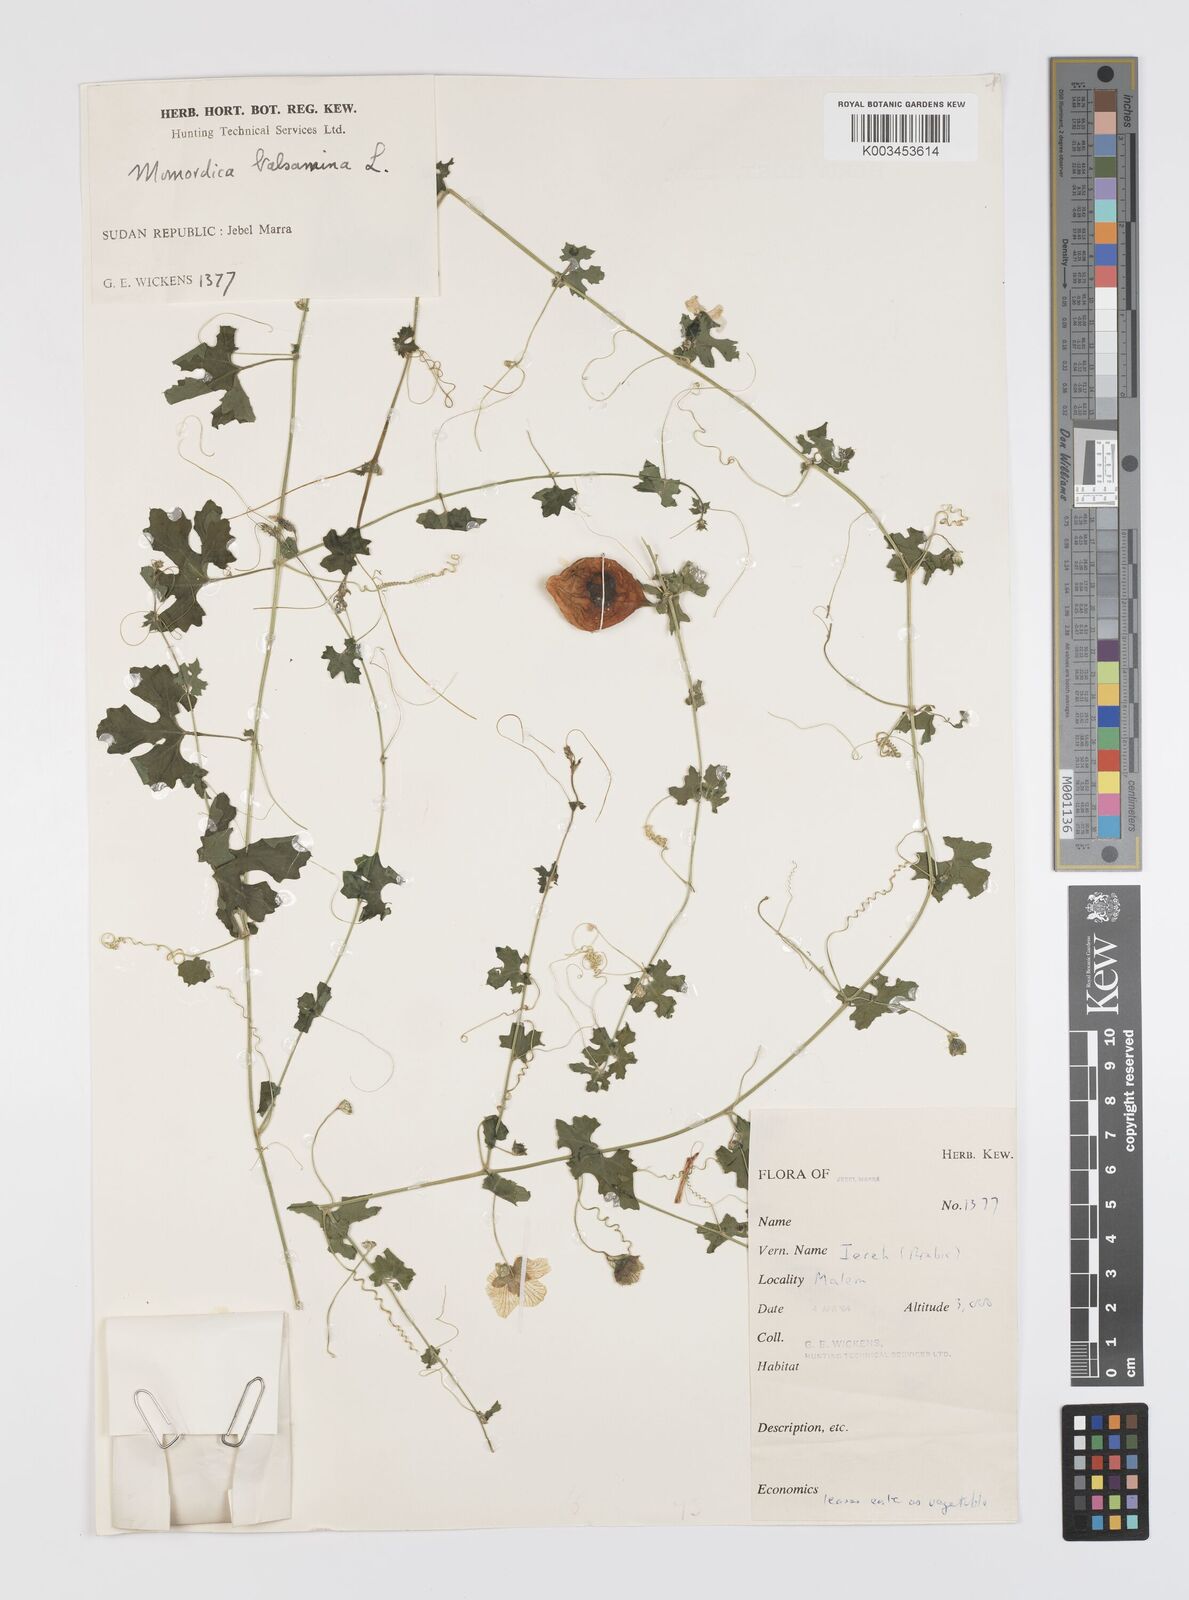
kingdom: Plantae
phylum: Tracheophyta
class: Magnoliopsida
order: Cucurbitales
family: Cucurbitaceae
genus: Momordica
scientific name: Momordica balsamina
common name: Southern balsampear
